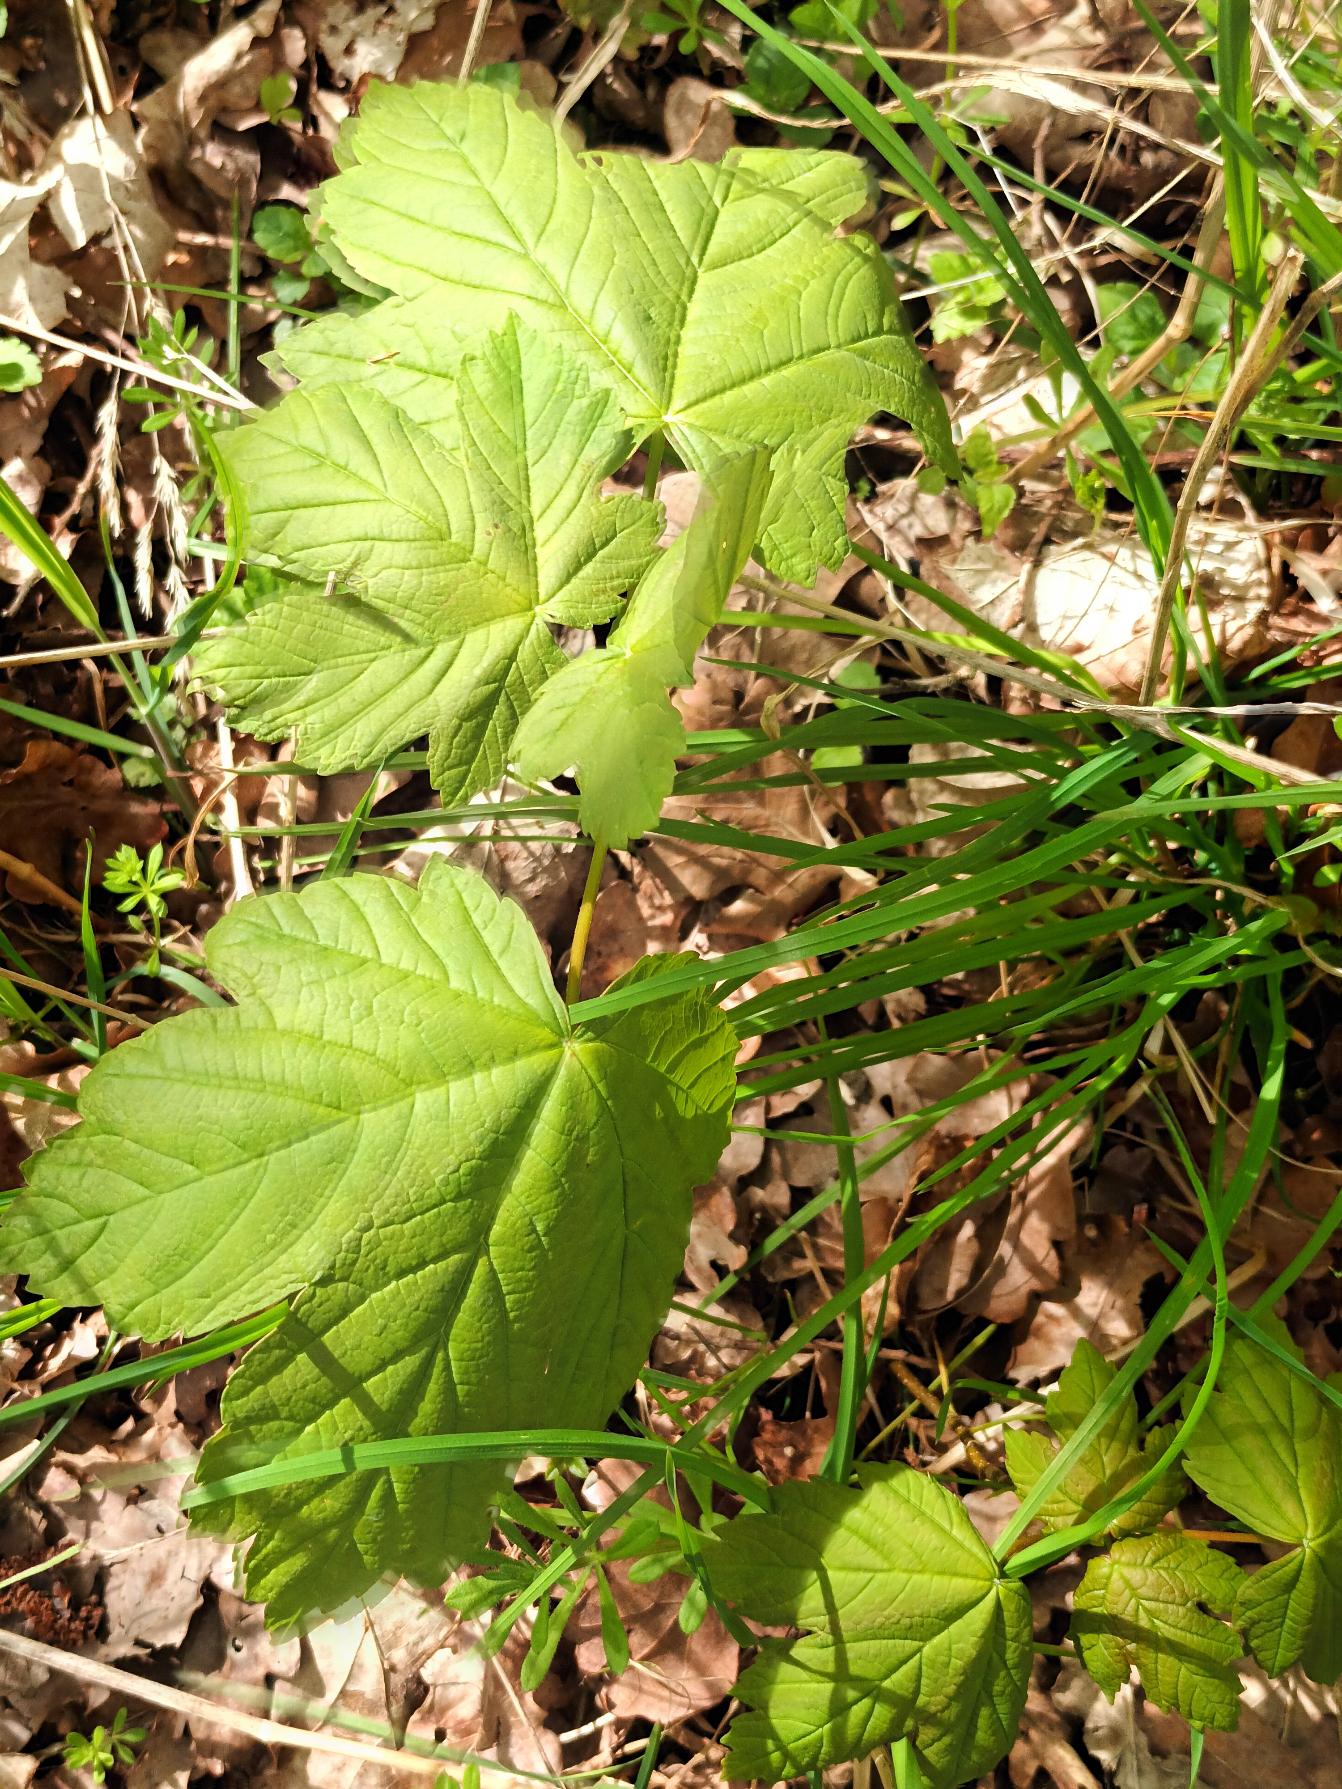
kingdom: Plantae
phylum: Tracheophyta
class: Magnoliopsida
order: Sapindales
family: Sapindaceae
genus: Acer
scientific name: Acer pseudoplatanus
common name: Ahorn
